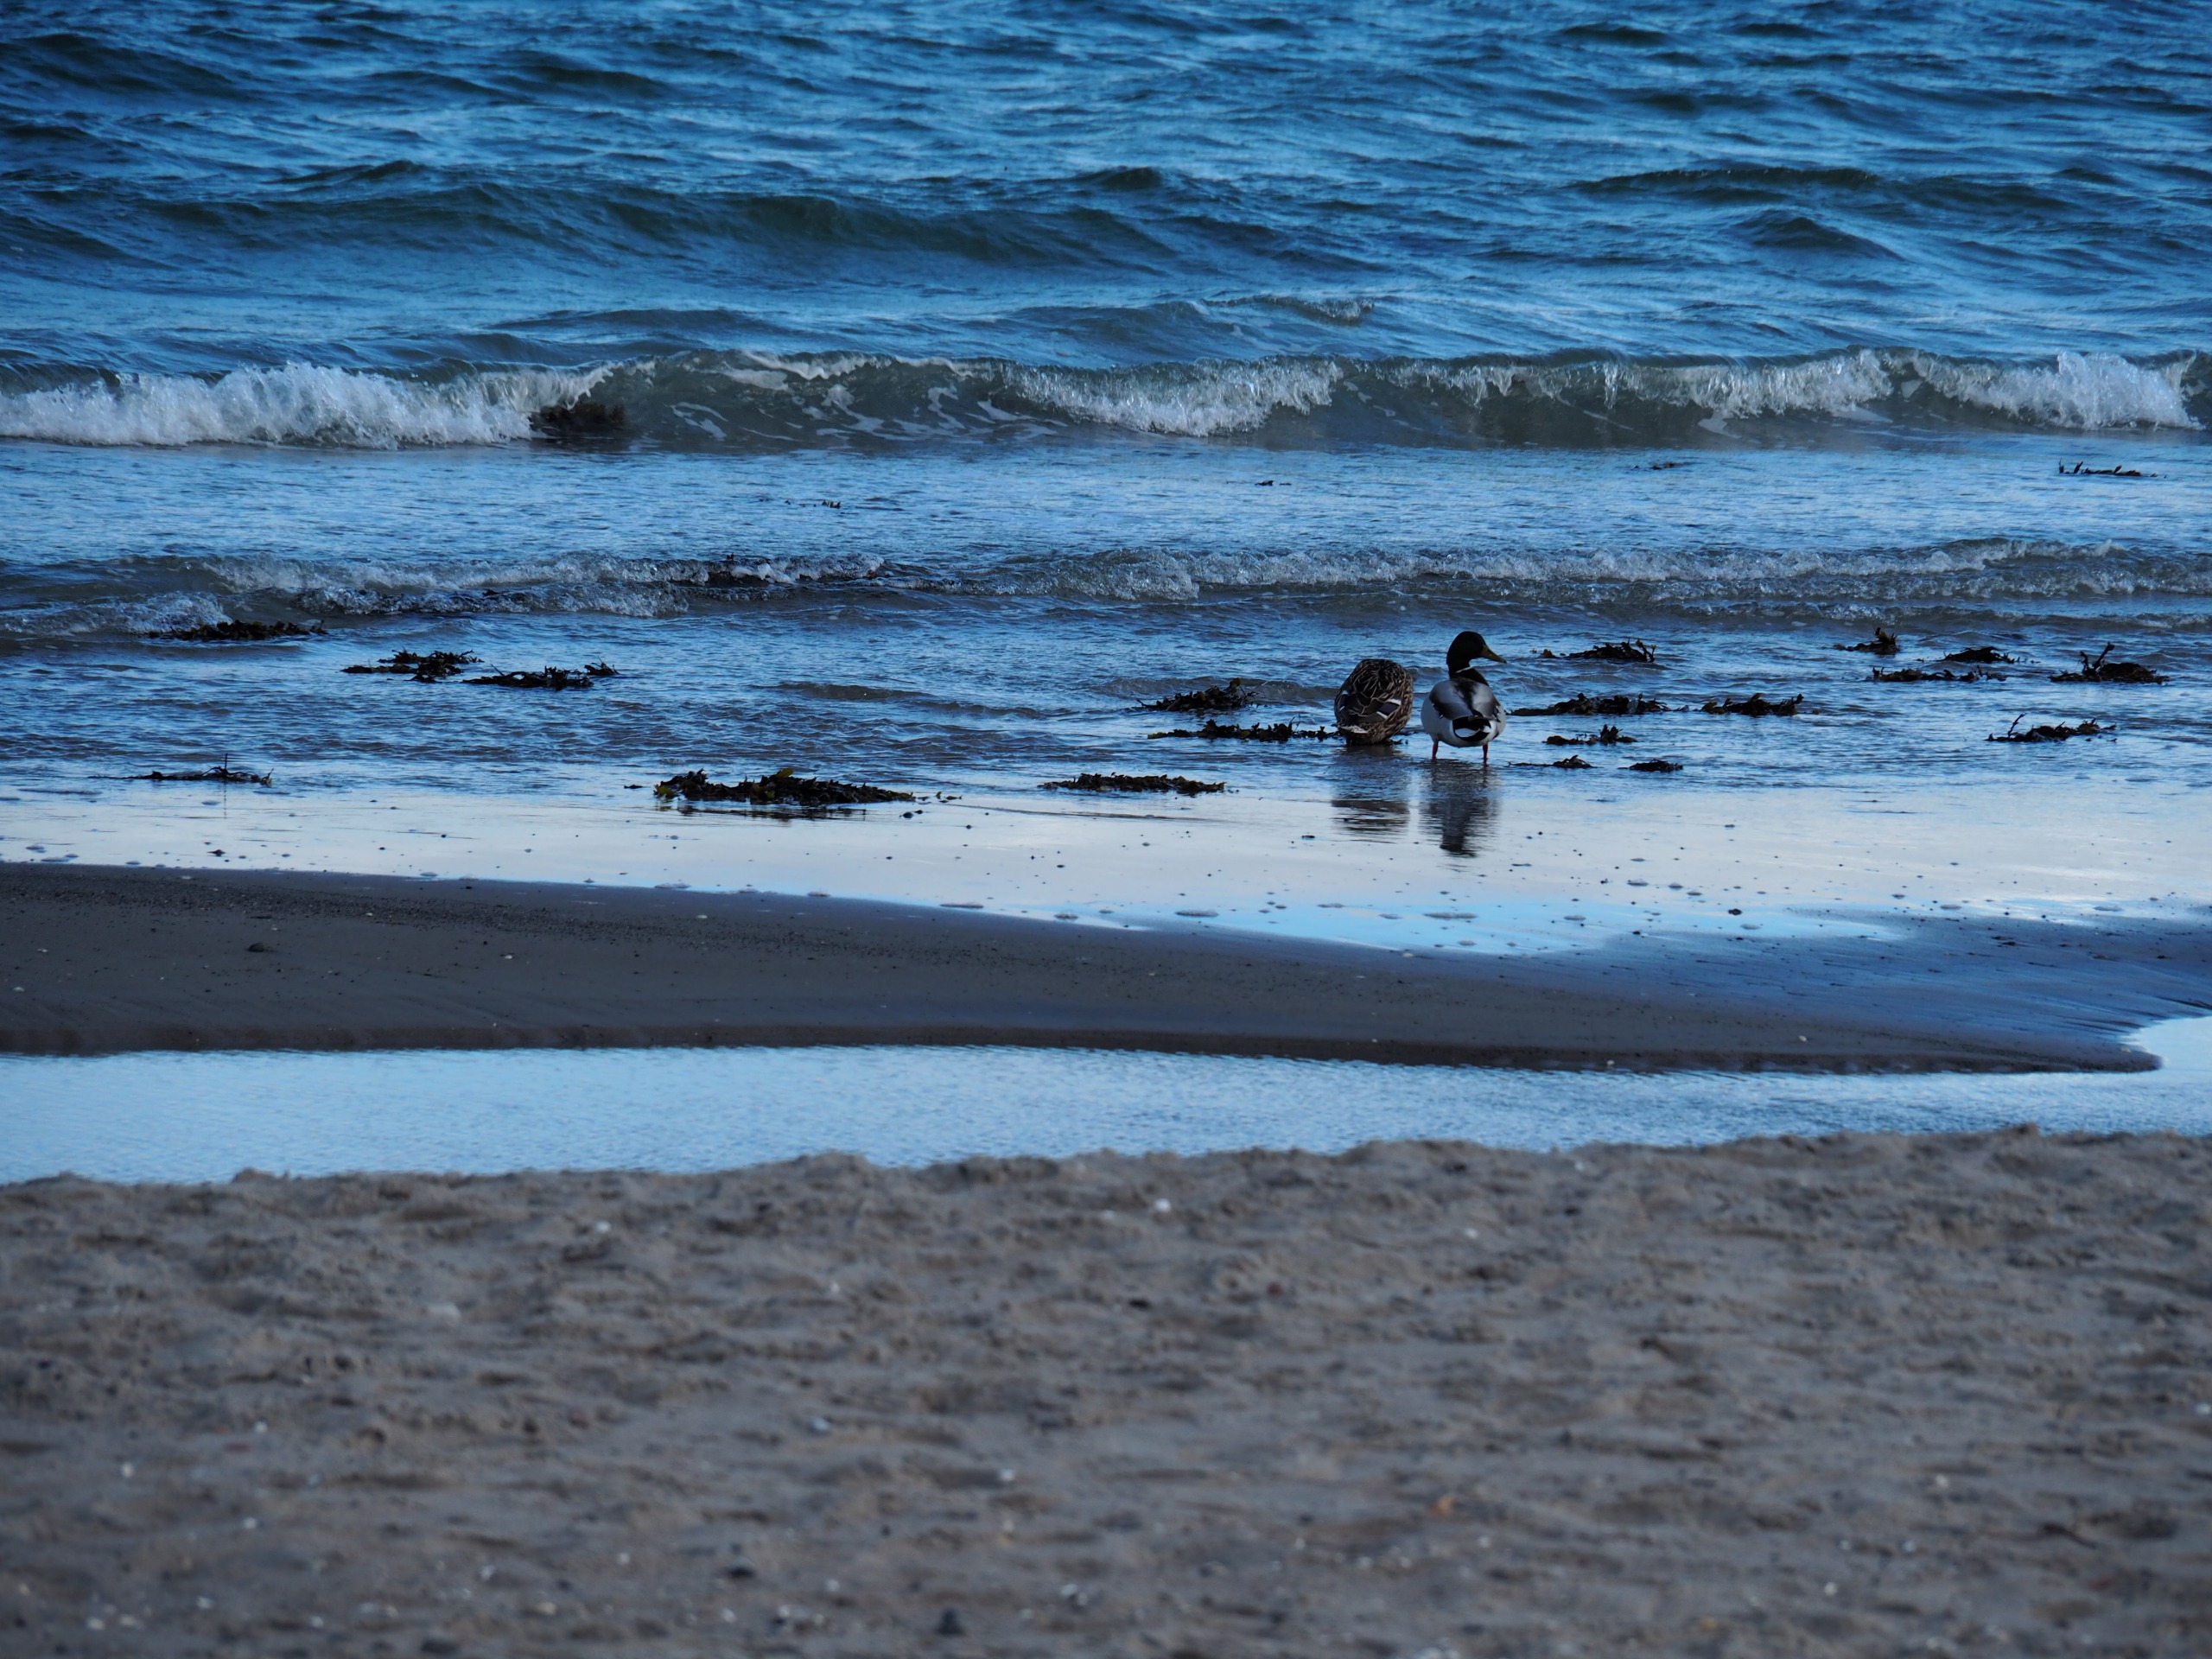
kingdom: Animalia
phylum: Chordata
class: Aves
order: Anseriformes
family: Anatidae
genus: Anas
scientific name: Anas platyrhynchos
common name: Gråand
